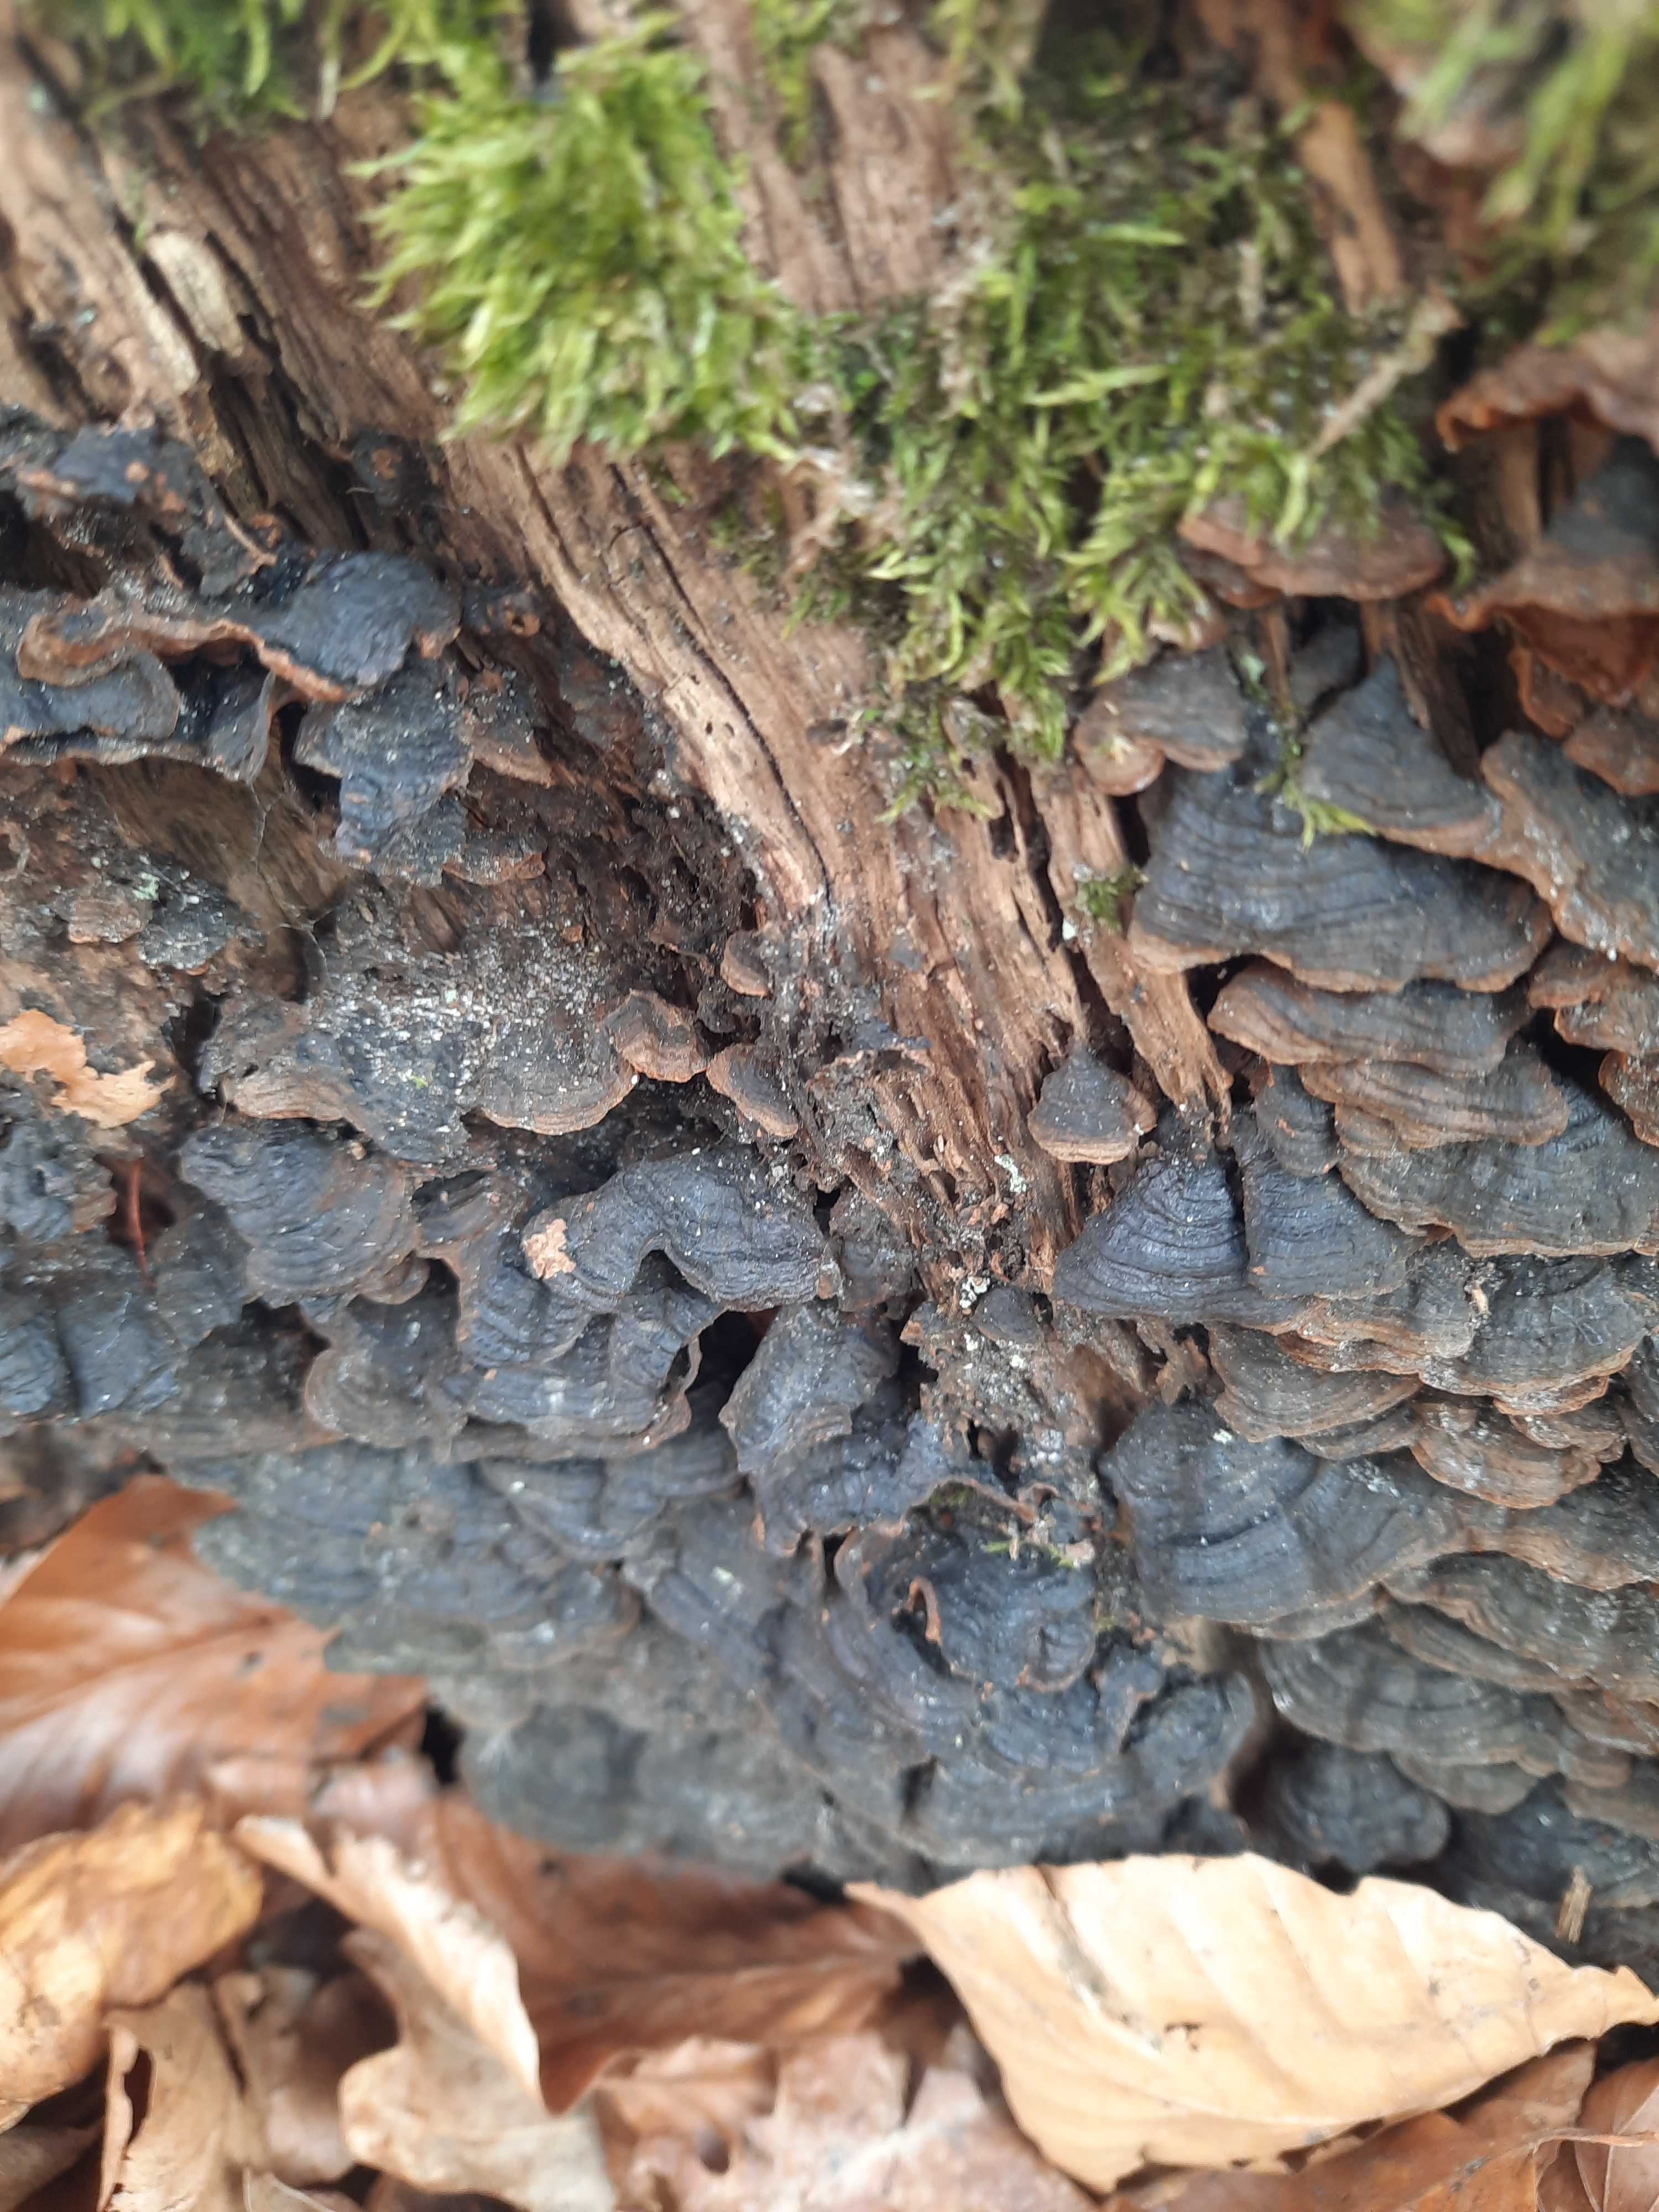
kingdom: Fungi
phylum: Basidiomycota
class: Agaricomycetes
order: Hymenochaetales
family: Hymenochaetaceae
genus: Hymenochaete
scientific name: Hymenochaete rubiginosa
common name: stiv ruslædersvamp
